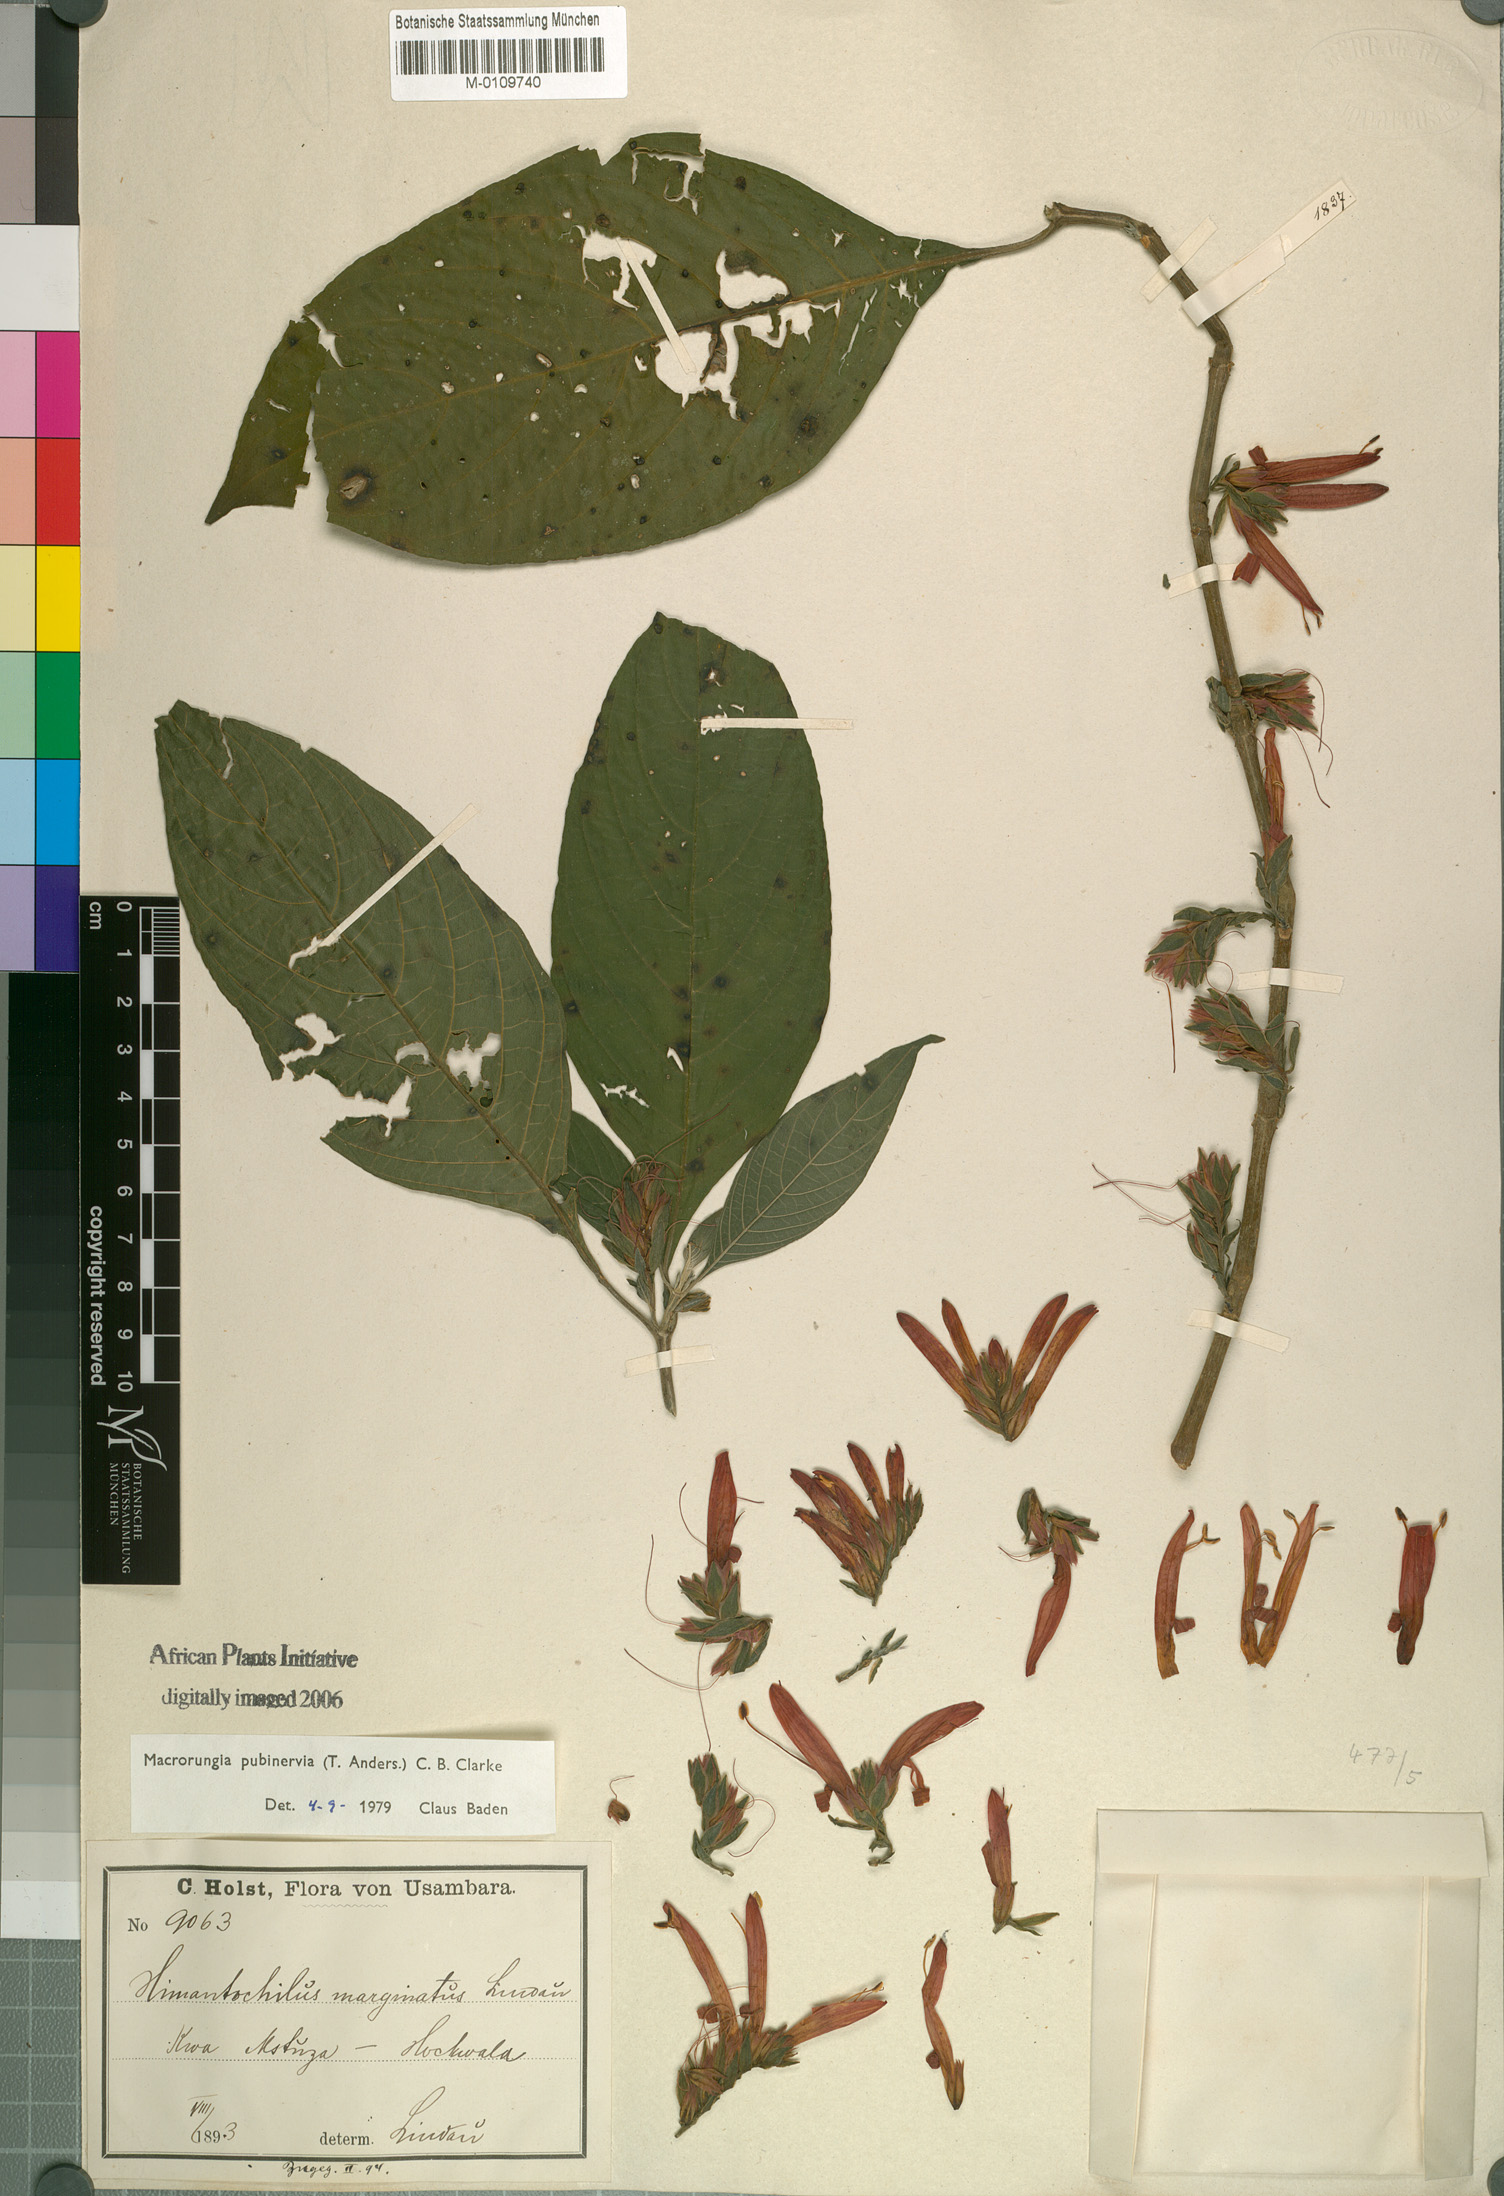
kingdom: Plantae
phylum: Tracheophyta
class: Magnoliopsida
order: Lamiales
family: Acanthaceae
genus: Metarungia
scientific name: Metarungia pubinervia
